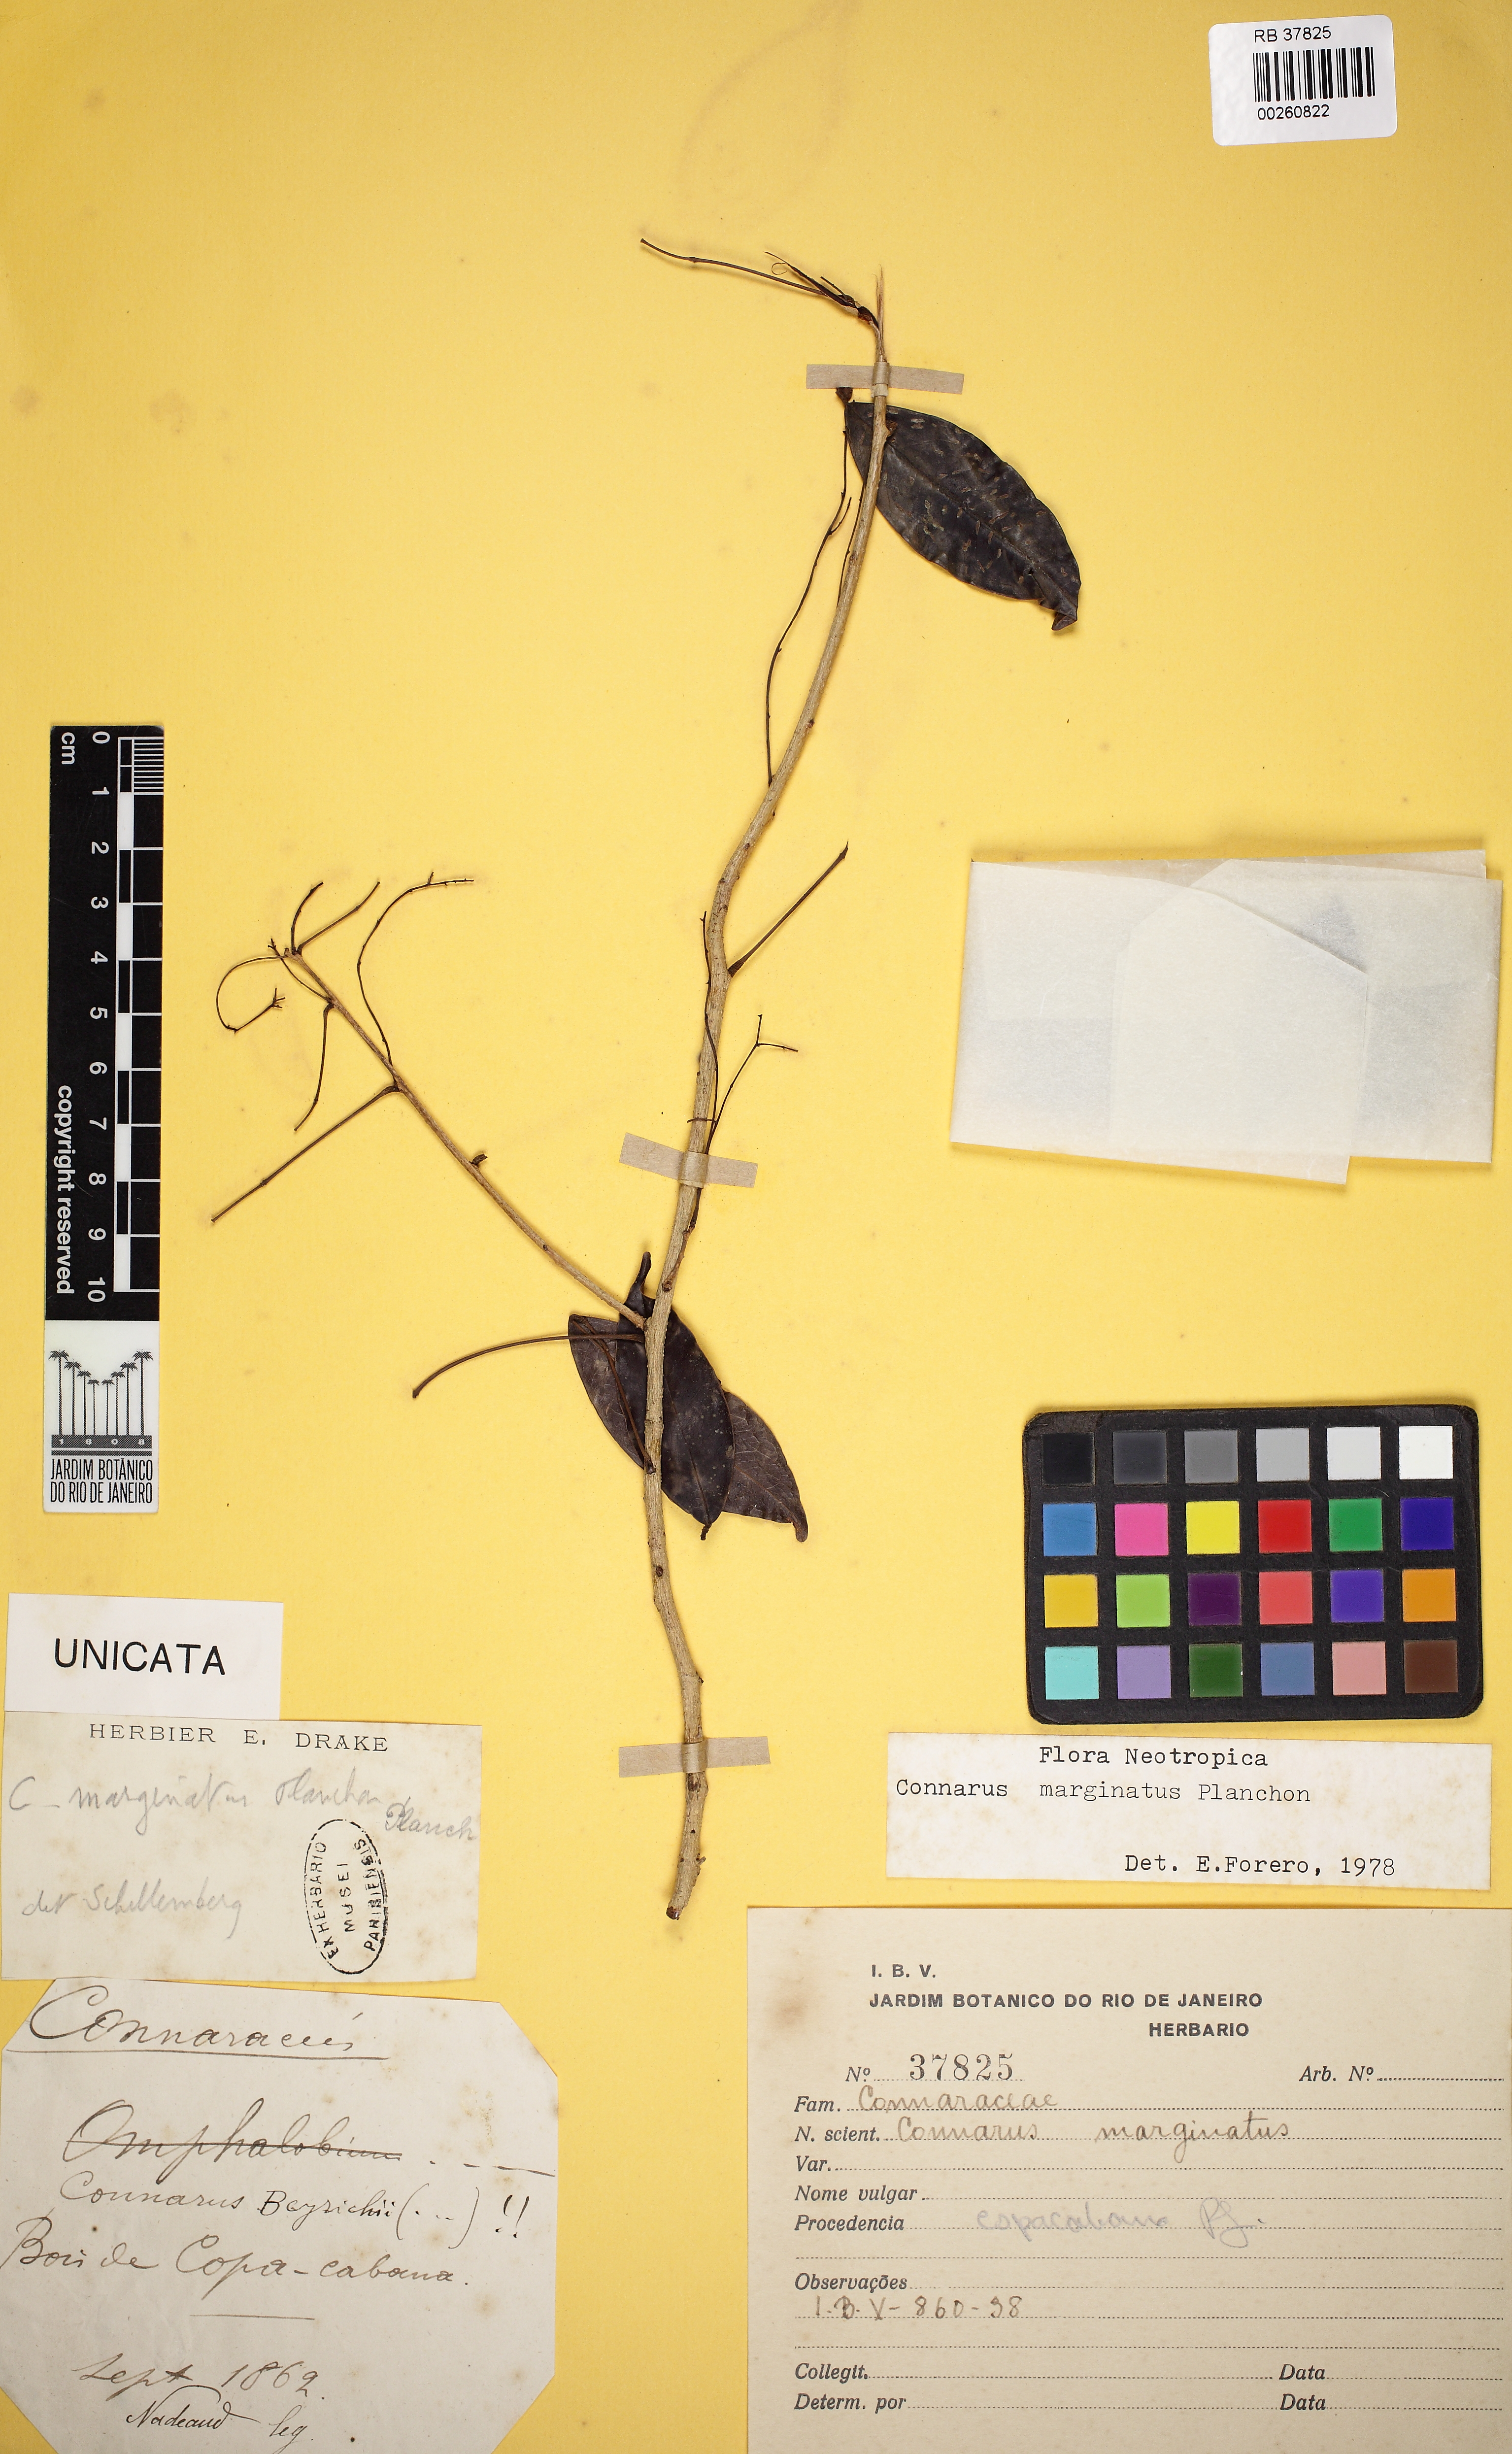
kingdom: Plantae
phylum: Tracheophyta
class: Magnoliopsida
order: Oxalidales
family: Connaraceae
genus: Connarus
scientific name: Connarus marginatus
